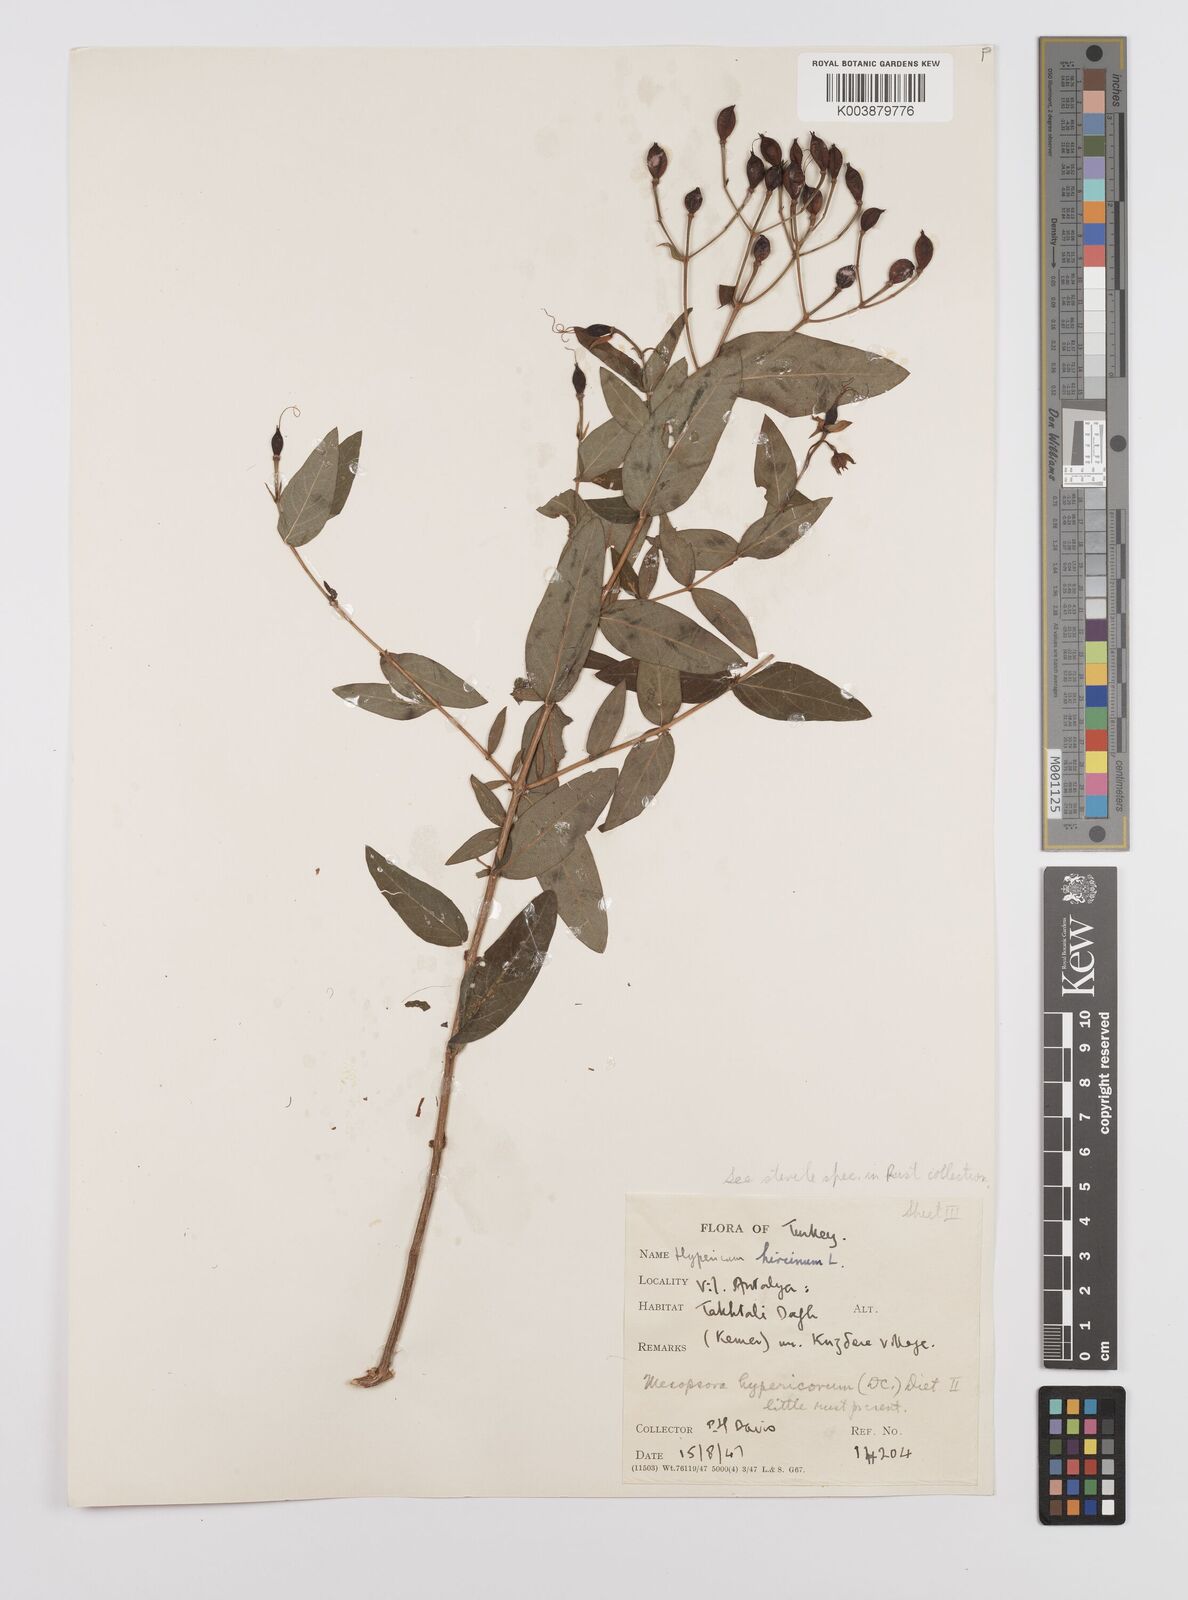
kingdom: Plantae
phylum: Tracheophyta
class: Magnoliopsida
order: Malpighiales
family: Hypericaceae
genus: Hypericum
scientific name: Hypericum hircinum
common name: Stinking tutsan
